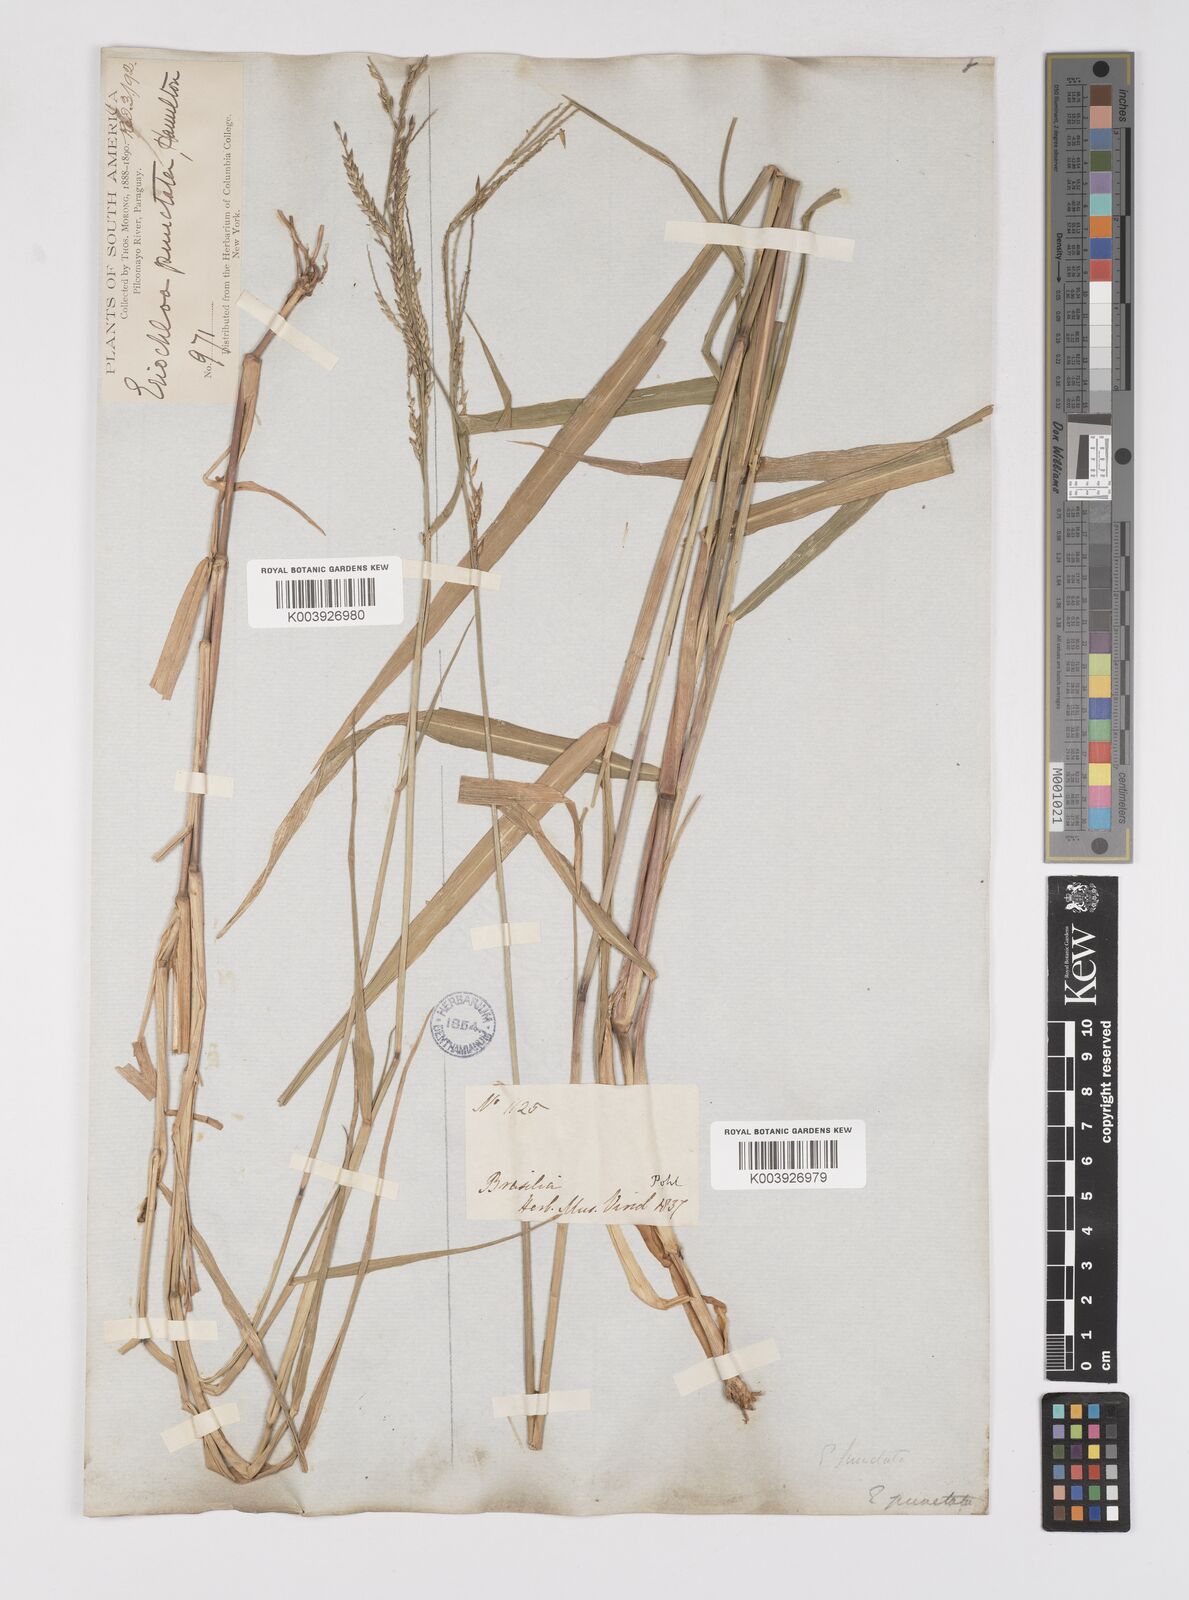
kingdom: Plantae
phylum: Tracheophyta
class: Liliopsida
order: Poales
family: Poaceae
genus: Eriochloa
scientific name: Eriochloa punctata
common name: Louisiana cupgrass
